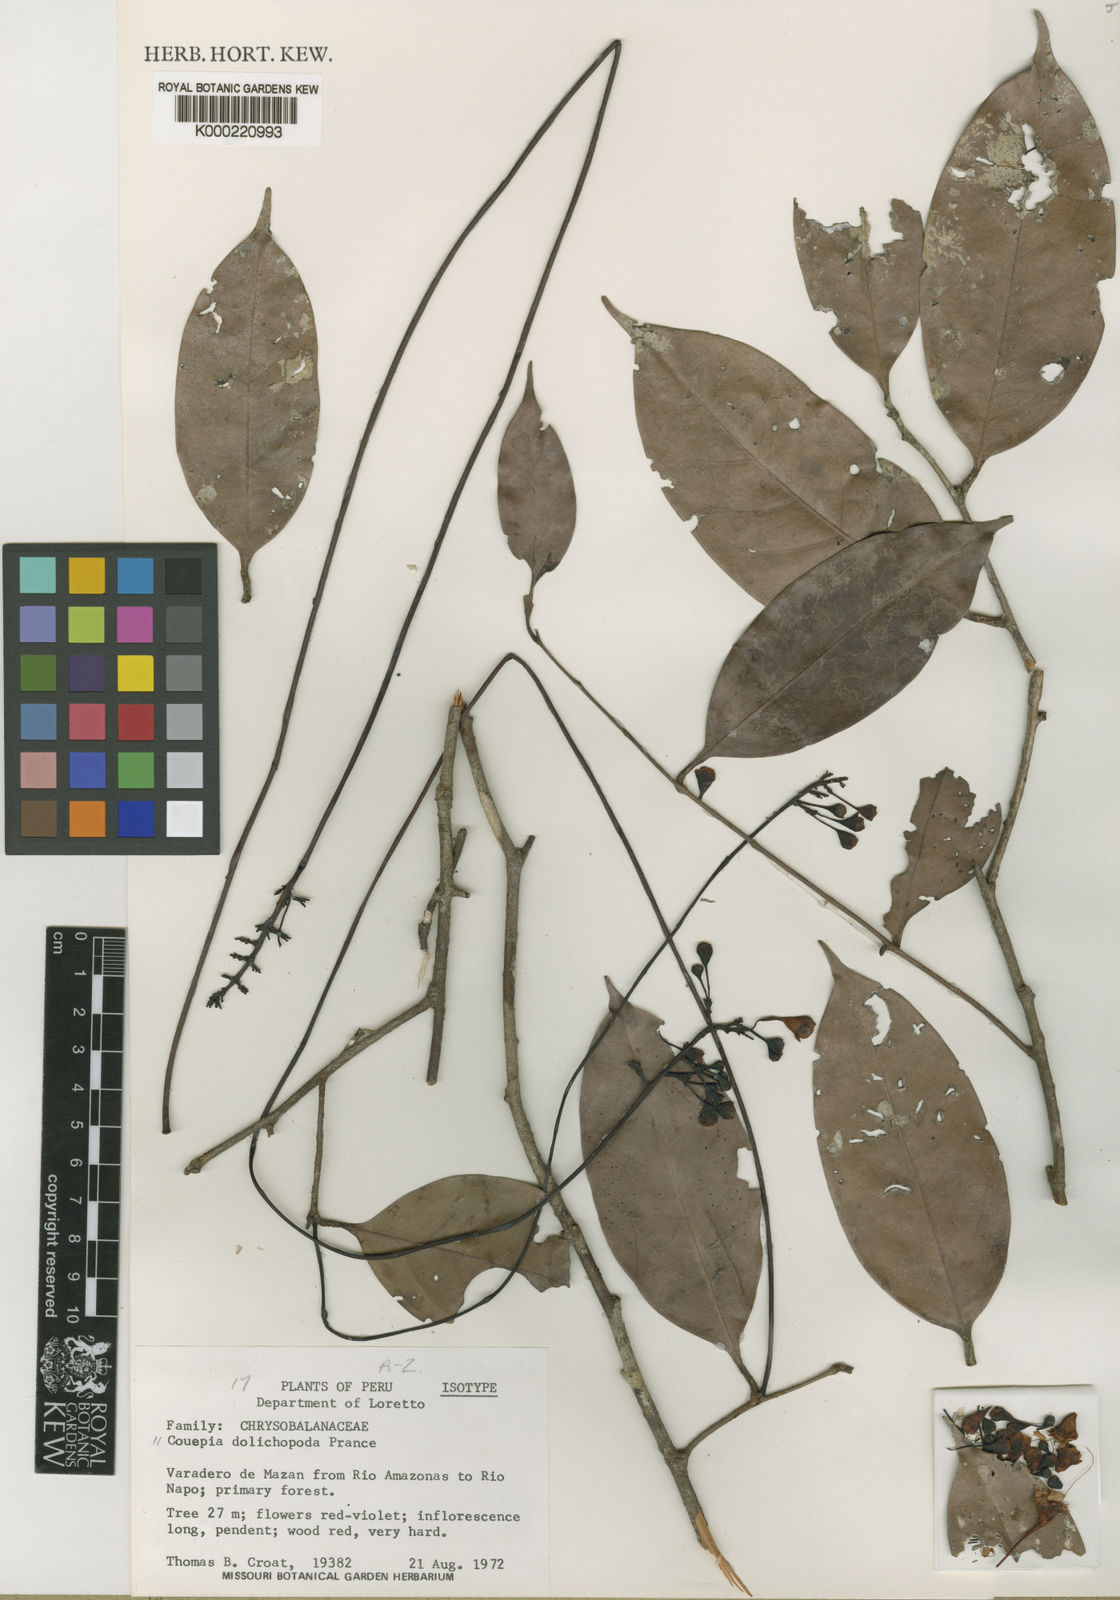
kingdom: Plantae
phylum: Tracheophyta
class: Magnoliopsida
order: Malpighiales
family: Chrysobalanaceae
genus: Acioa
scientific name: Acioa dolichopoda
